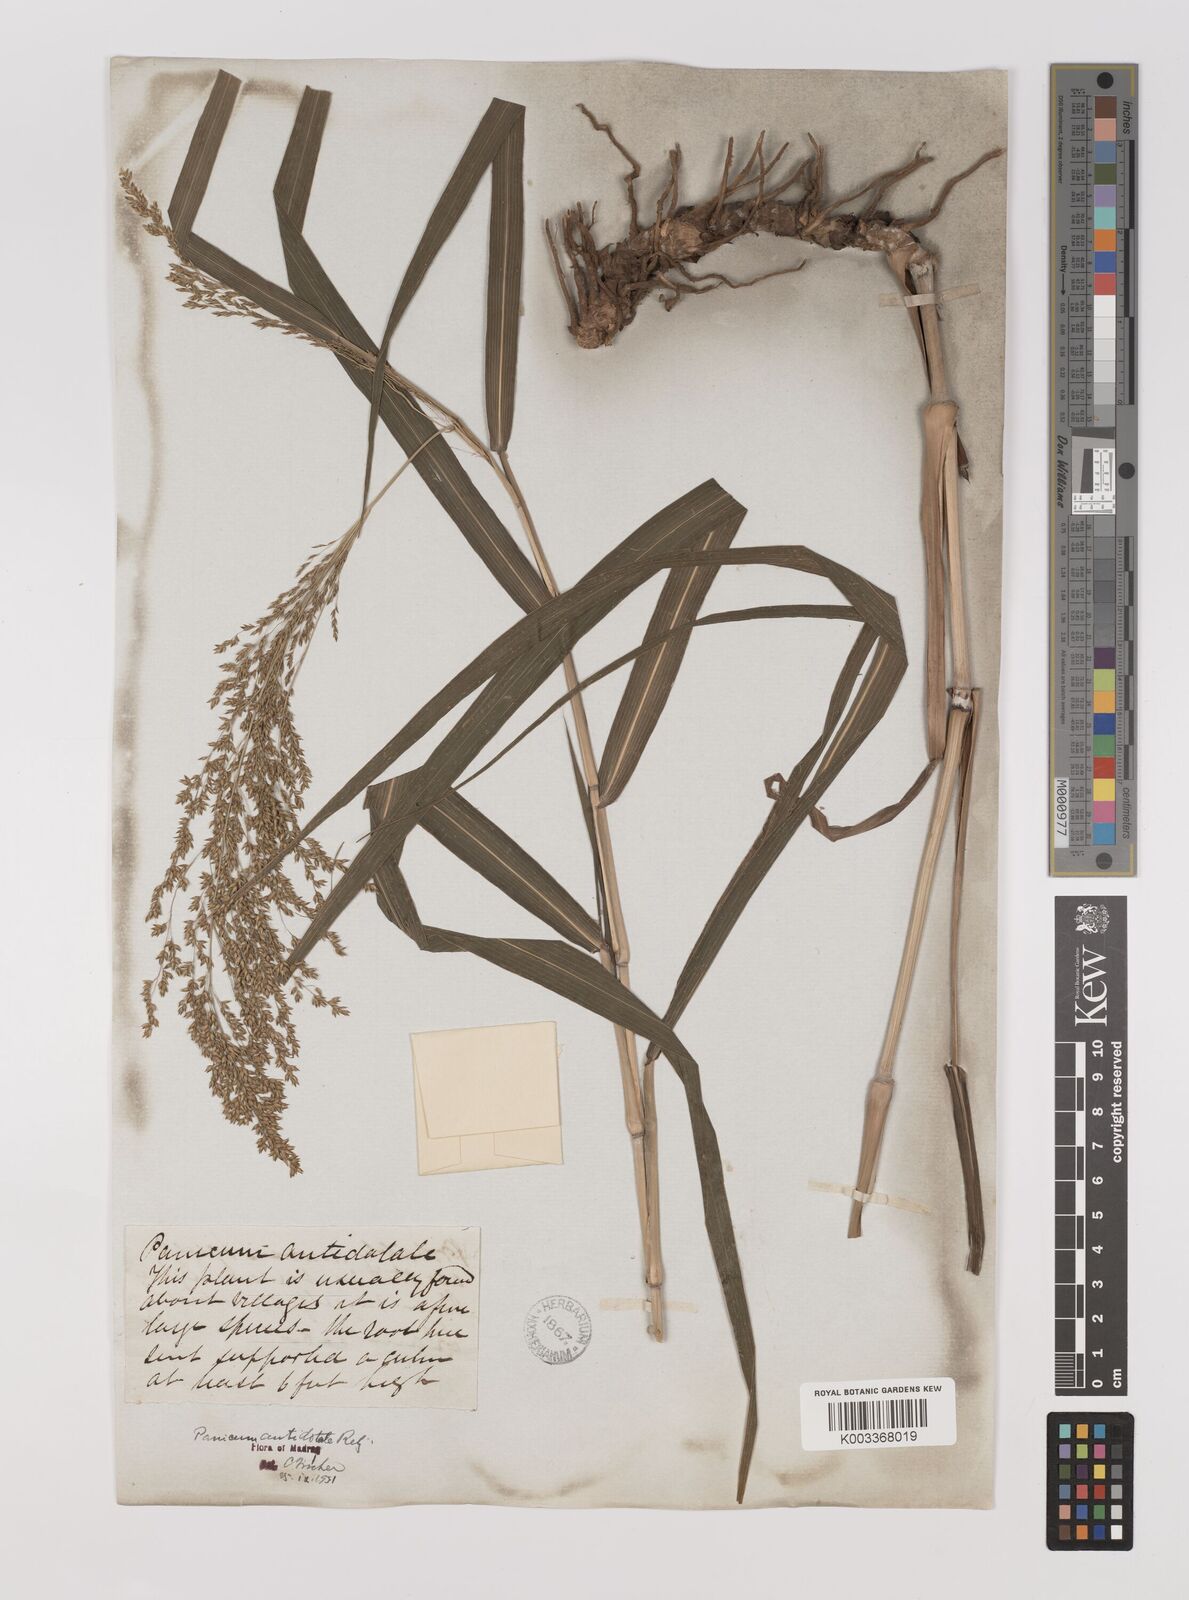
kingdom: Plantae
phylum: Tracheophyta
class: Liliopsida
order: Poales
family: Poaceae
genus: Panicum
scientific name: Panicum antidotale
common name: Blue panicum
